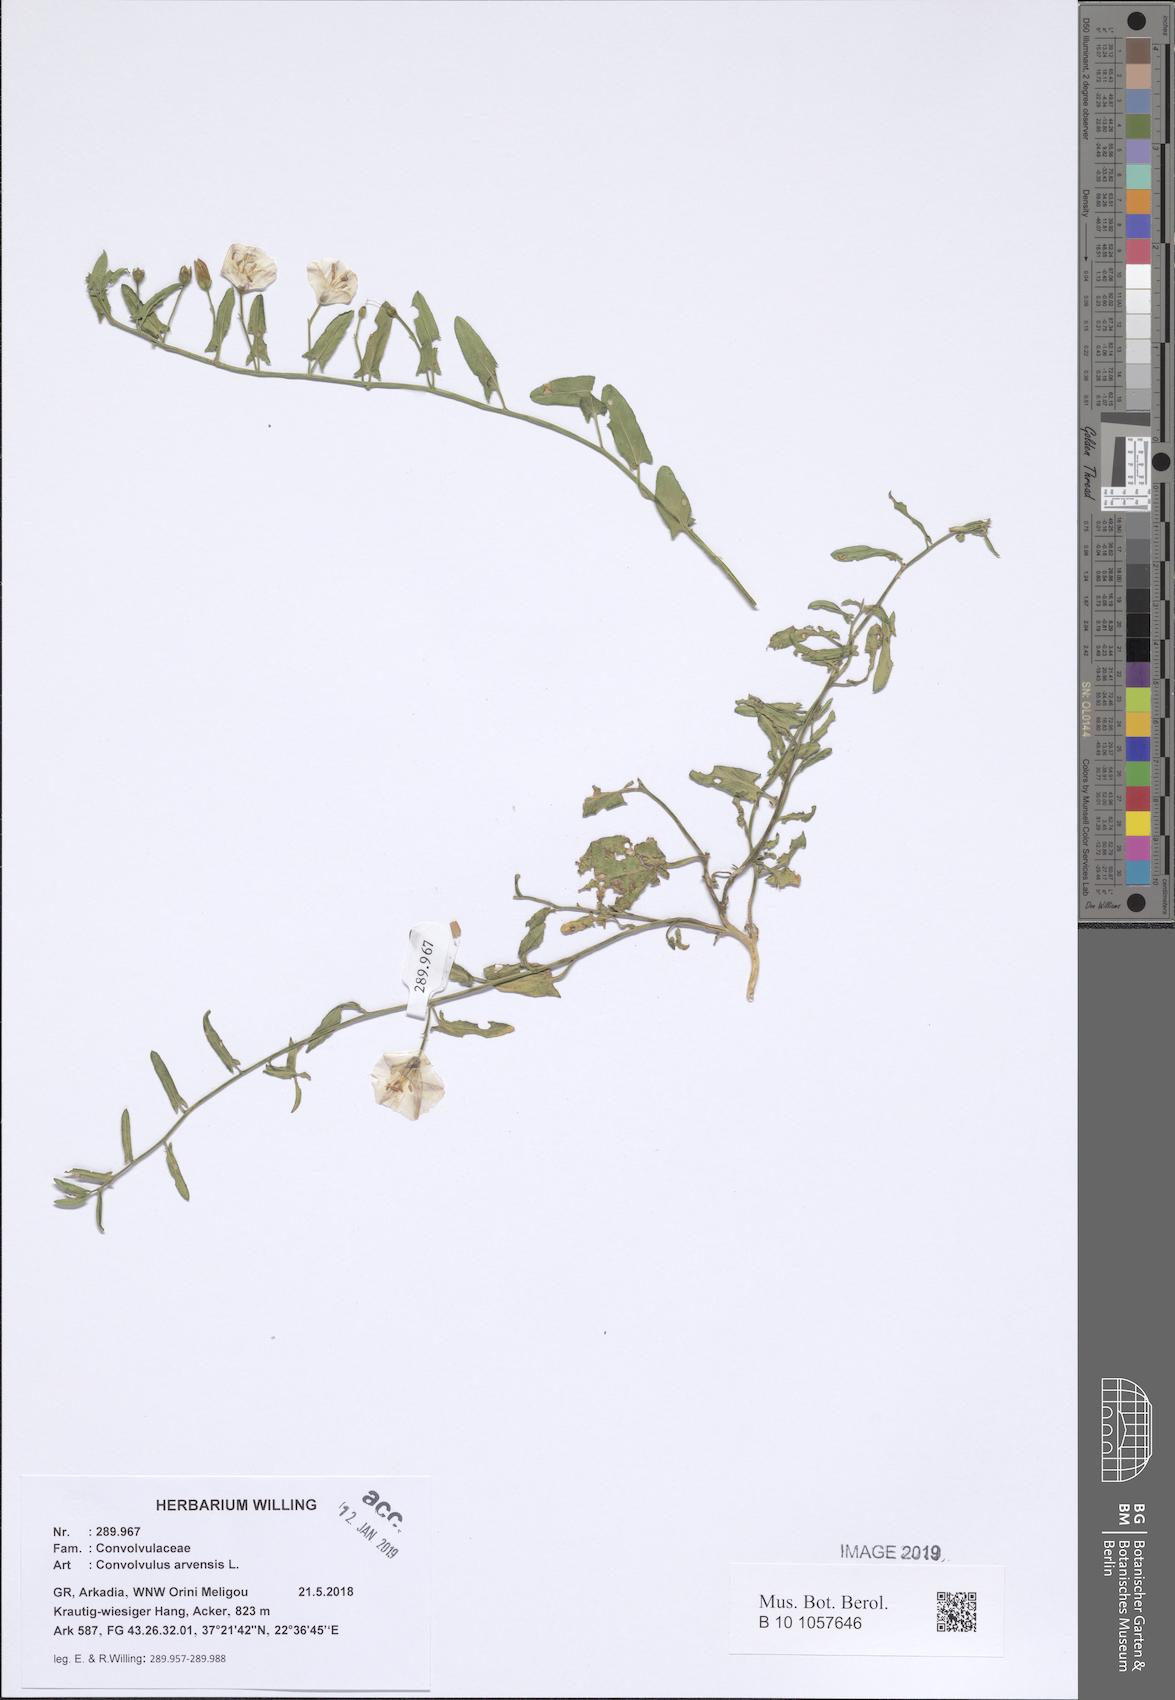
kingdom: Plantae
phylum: Tracheophyta
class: Magnoliopsida
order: Solanales
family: Convolvulaceae
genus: Convolvulus
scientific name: Convolvulus arvensis
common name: Field bindweed
